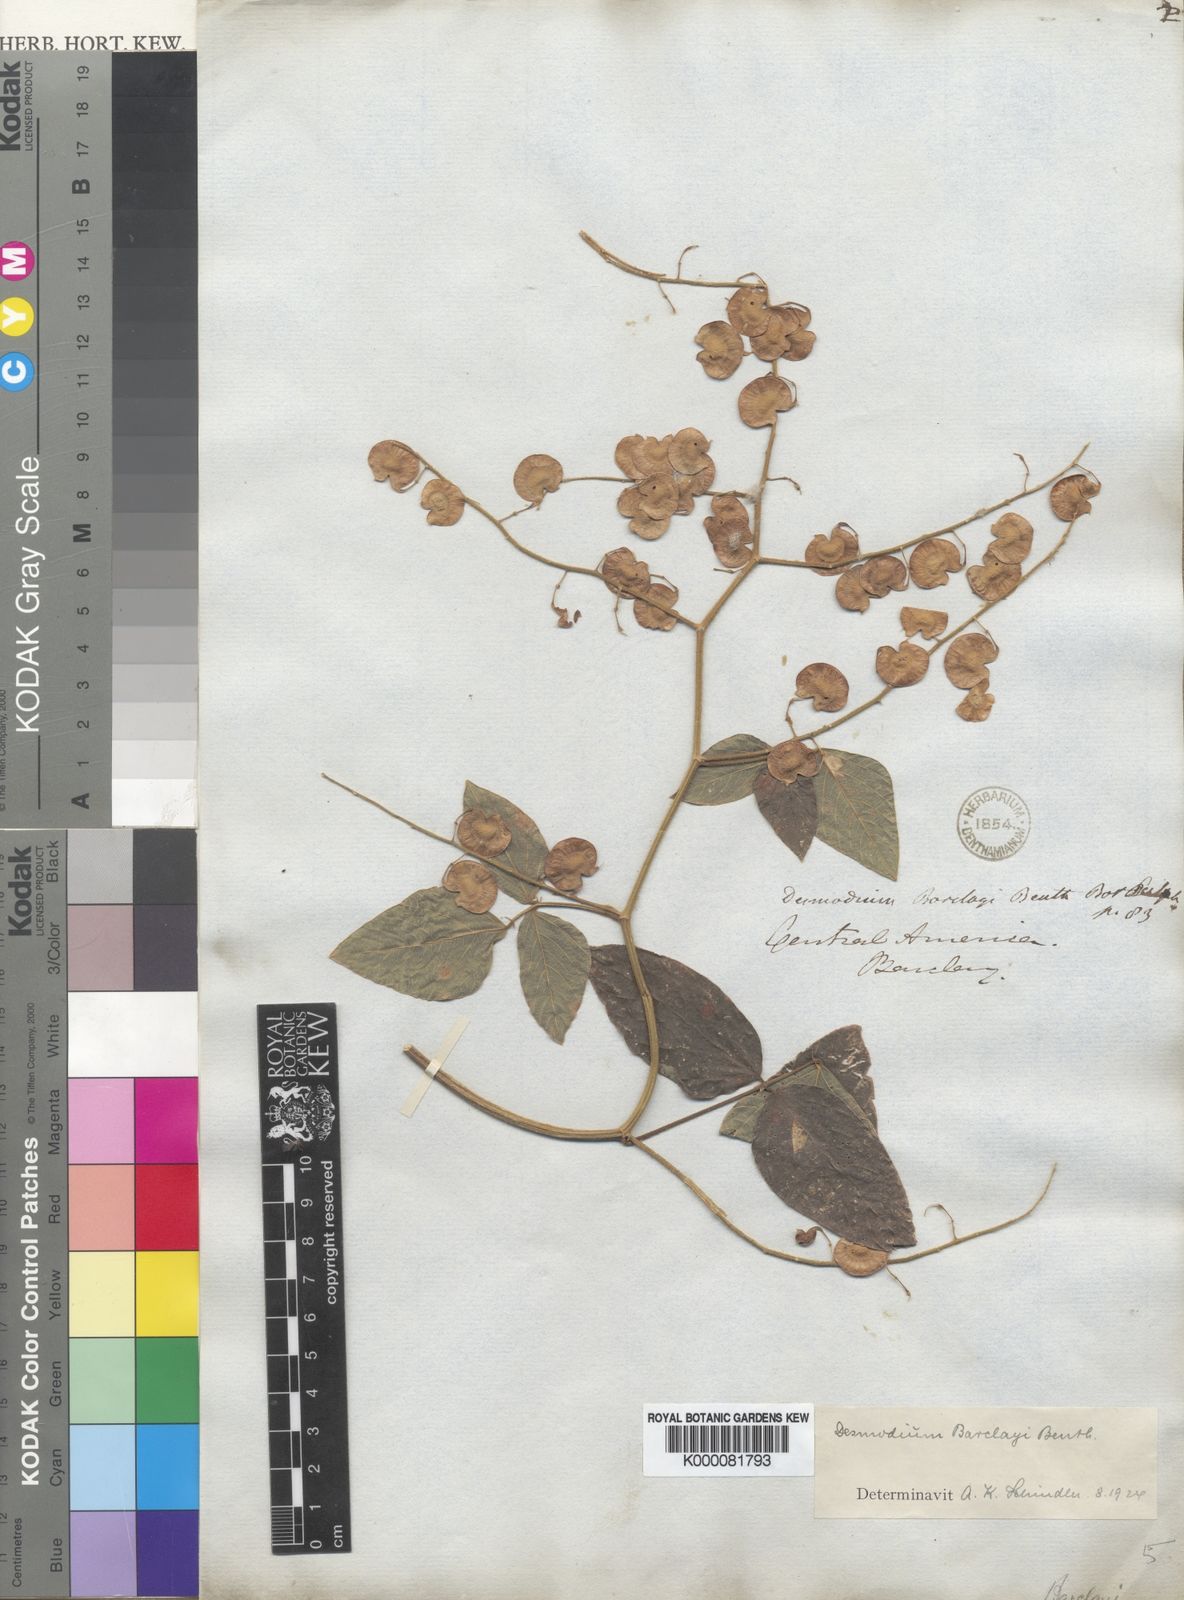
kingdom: Plantae
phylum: Tracheophyta
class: Magnoliopsida
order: Fabales
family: Fabaceae
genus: Desmodium
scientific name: Desmodium infractum
